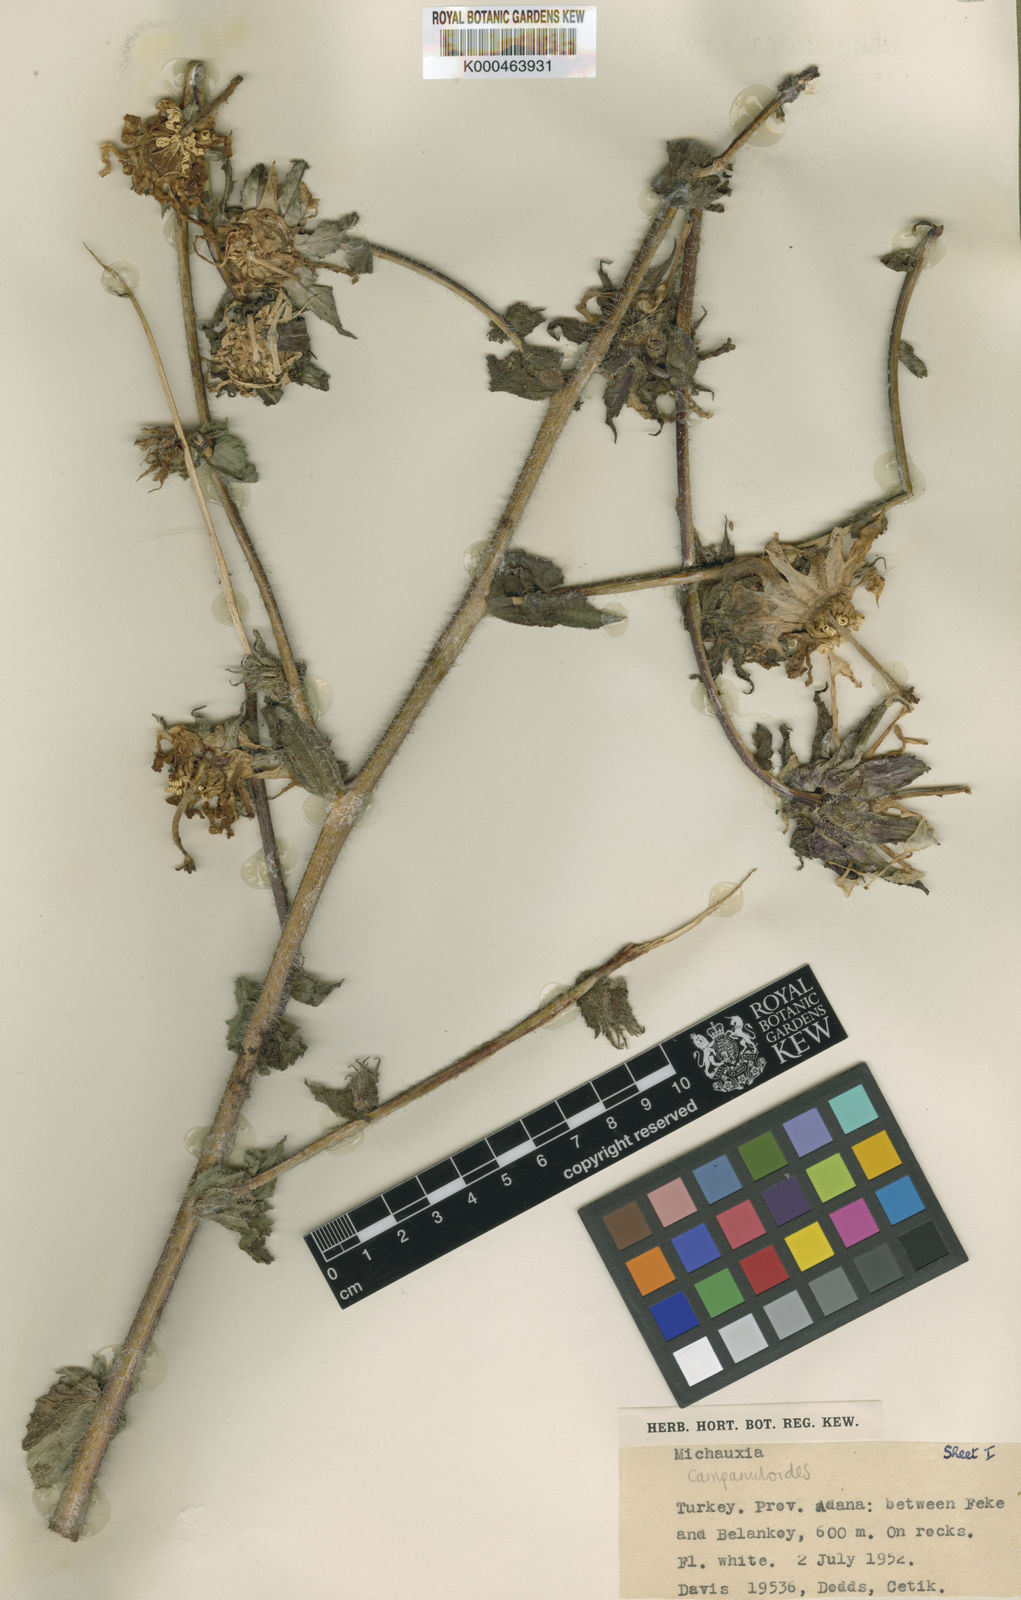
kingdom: Plantae
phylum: Tracheophyta
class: Magnoliopsida
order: Asterales
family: Campanulaceae
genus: Michauxia
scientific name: Michauxia
